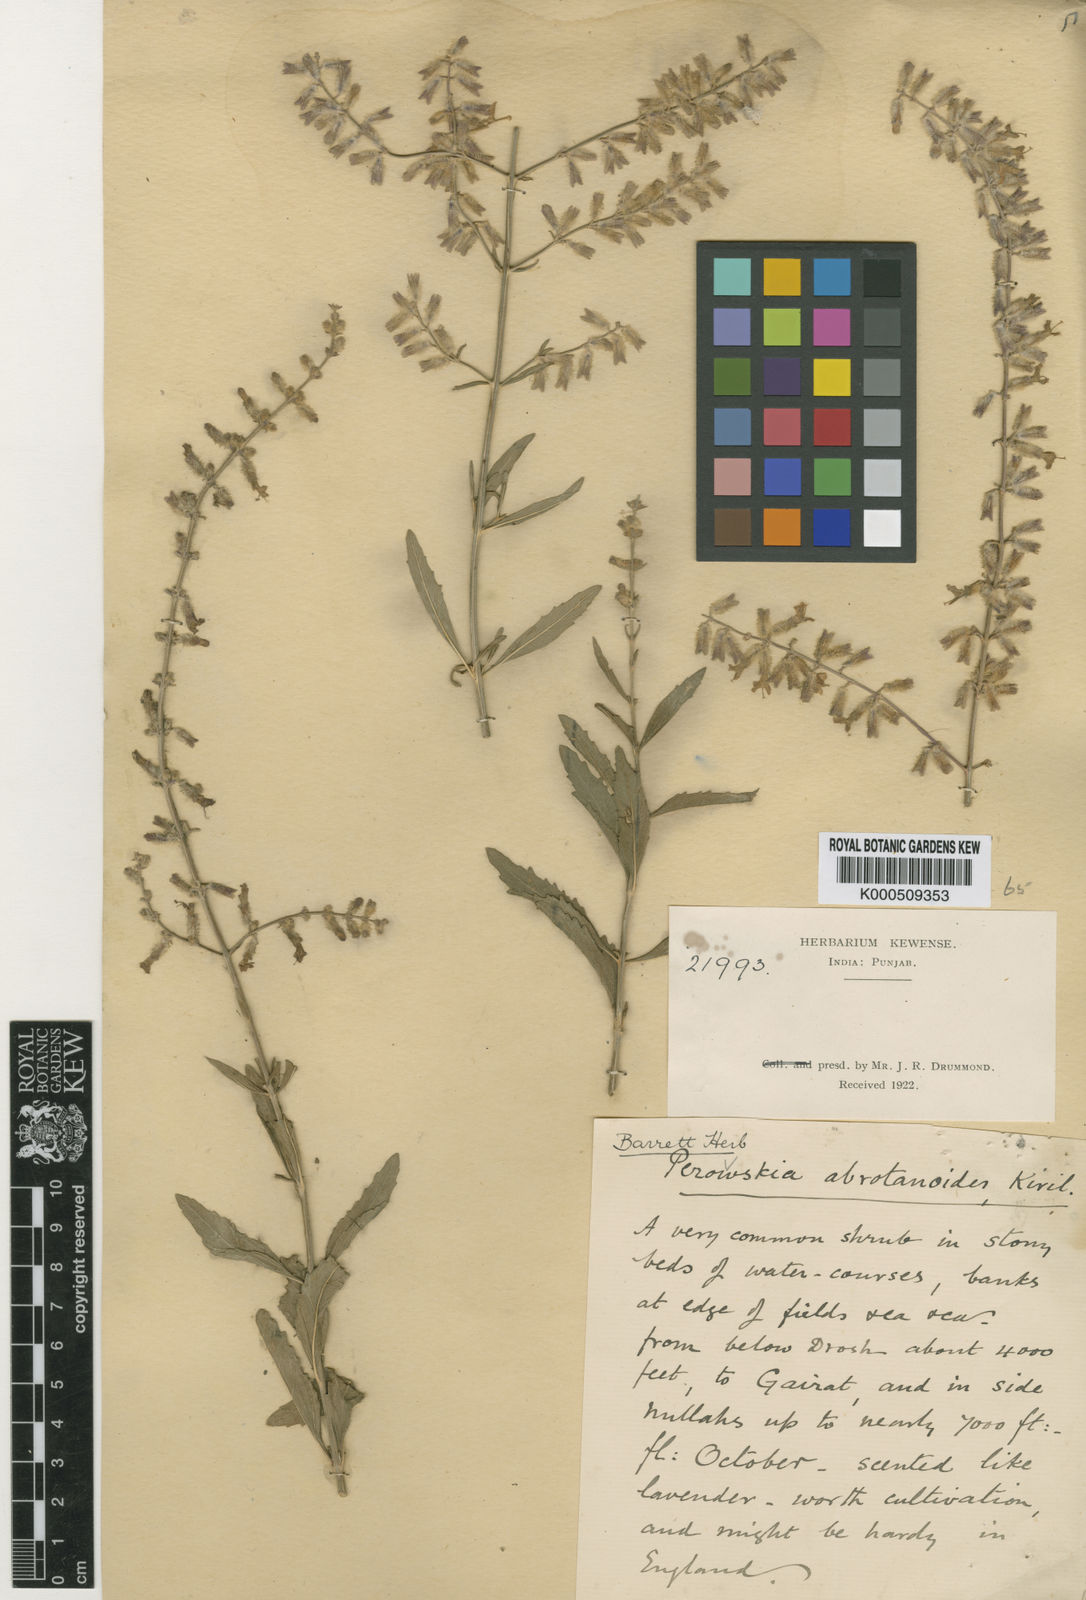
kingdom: Plantae
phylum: Tracheophyta
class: Magnoliopsida
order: Lamiales
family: Lamiaceae
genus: Salvia
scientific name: Salvia abrotanoides
